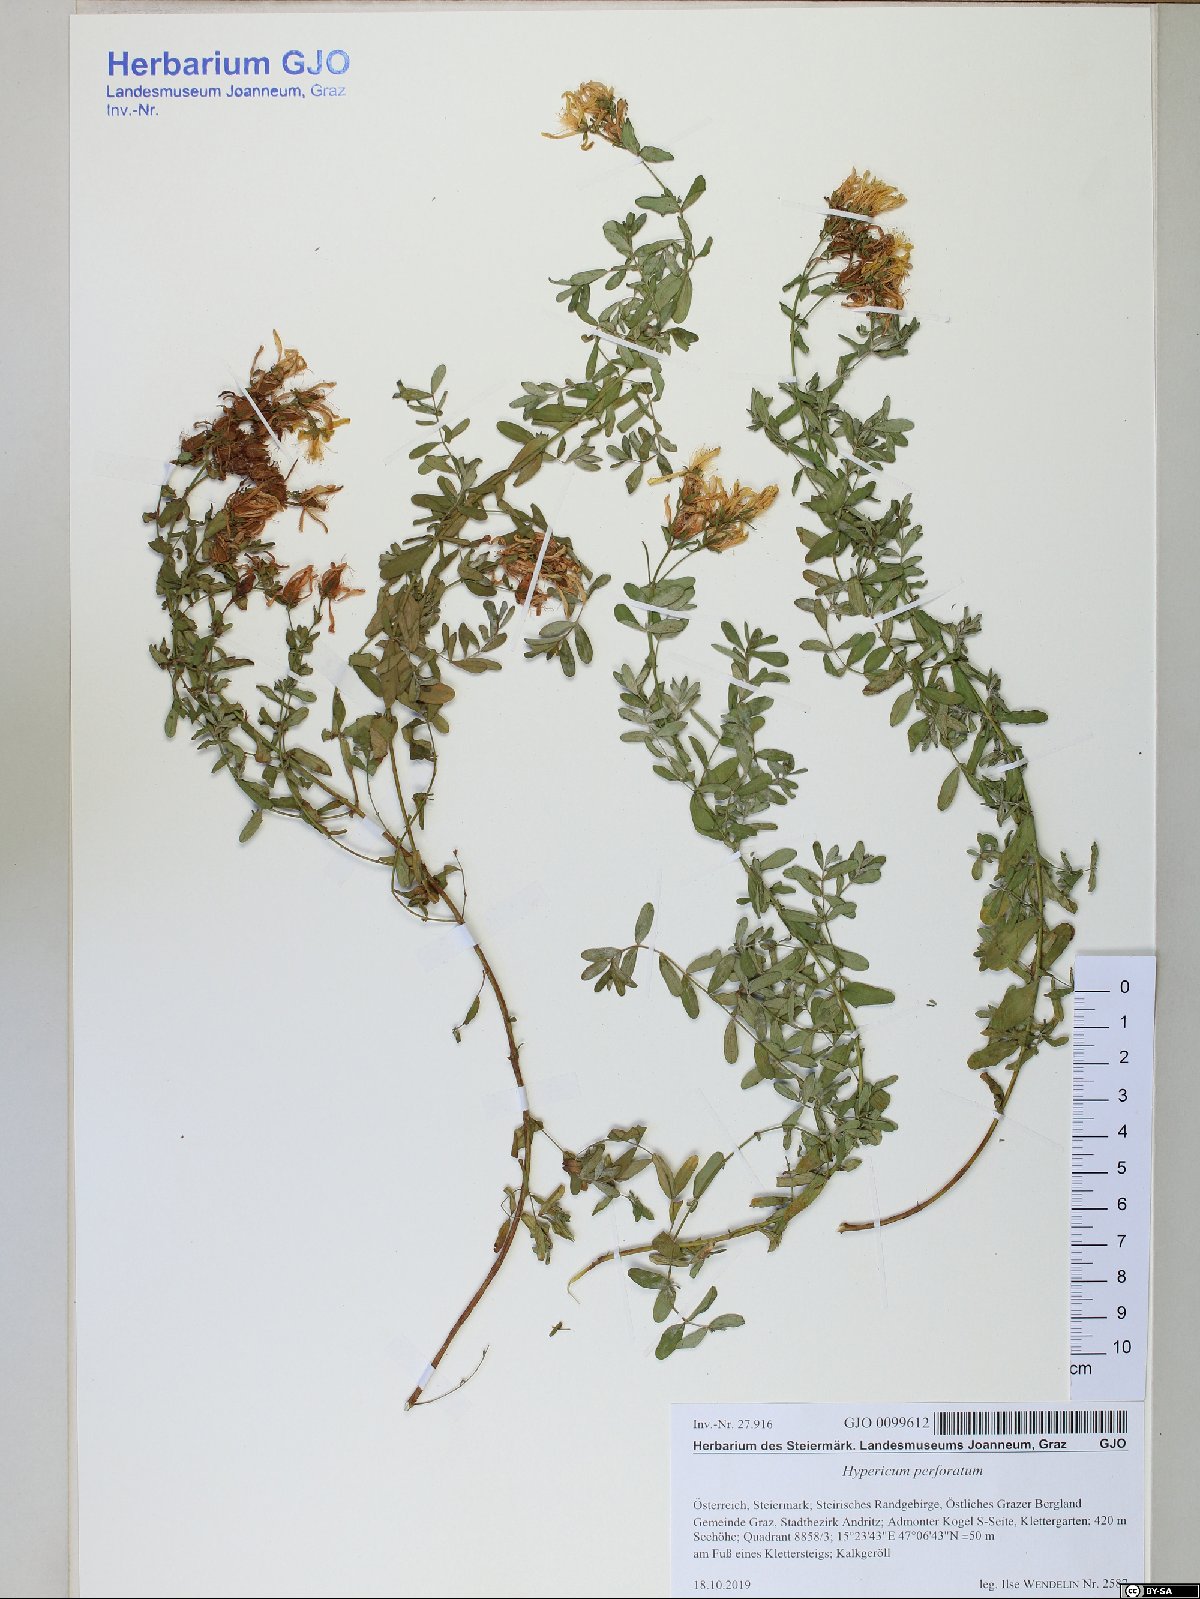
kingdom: Plantae
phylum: Tracheophyta
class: Magnoliopsida
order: Malpighiales
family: Hypericaceae
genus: Hypericum
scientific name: Hypericum perforatum
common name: Common st. johnswort
